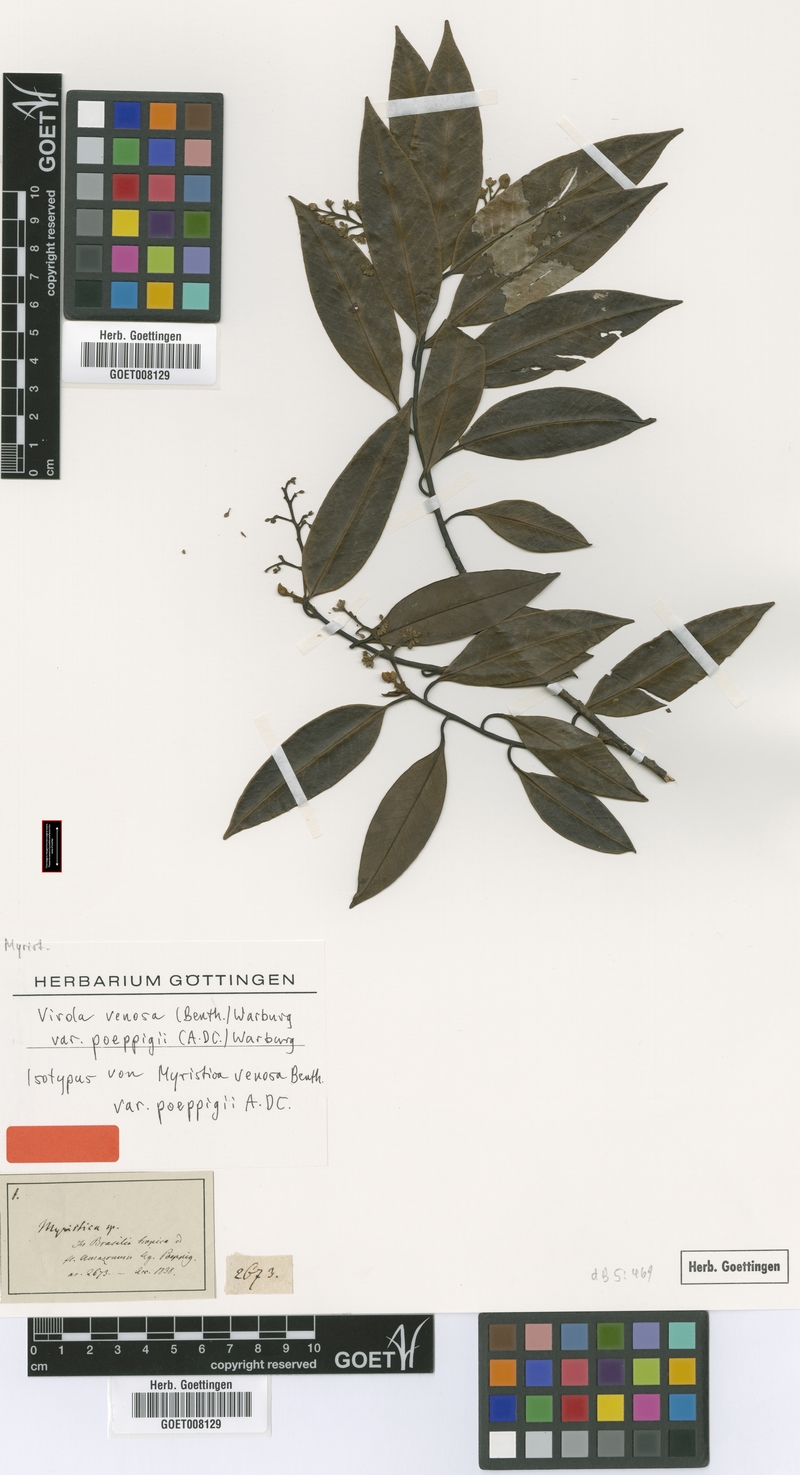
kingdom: Plantae
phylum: Tracheophyta
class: Magnoliopsida
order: Magnoliales
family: Myristicaceae
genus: Virola
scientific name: Virola venosa
